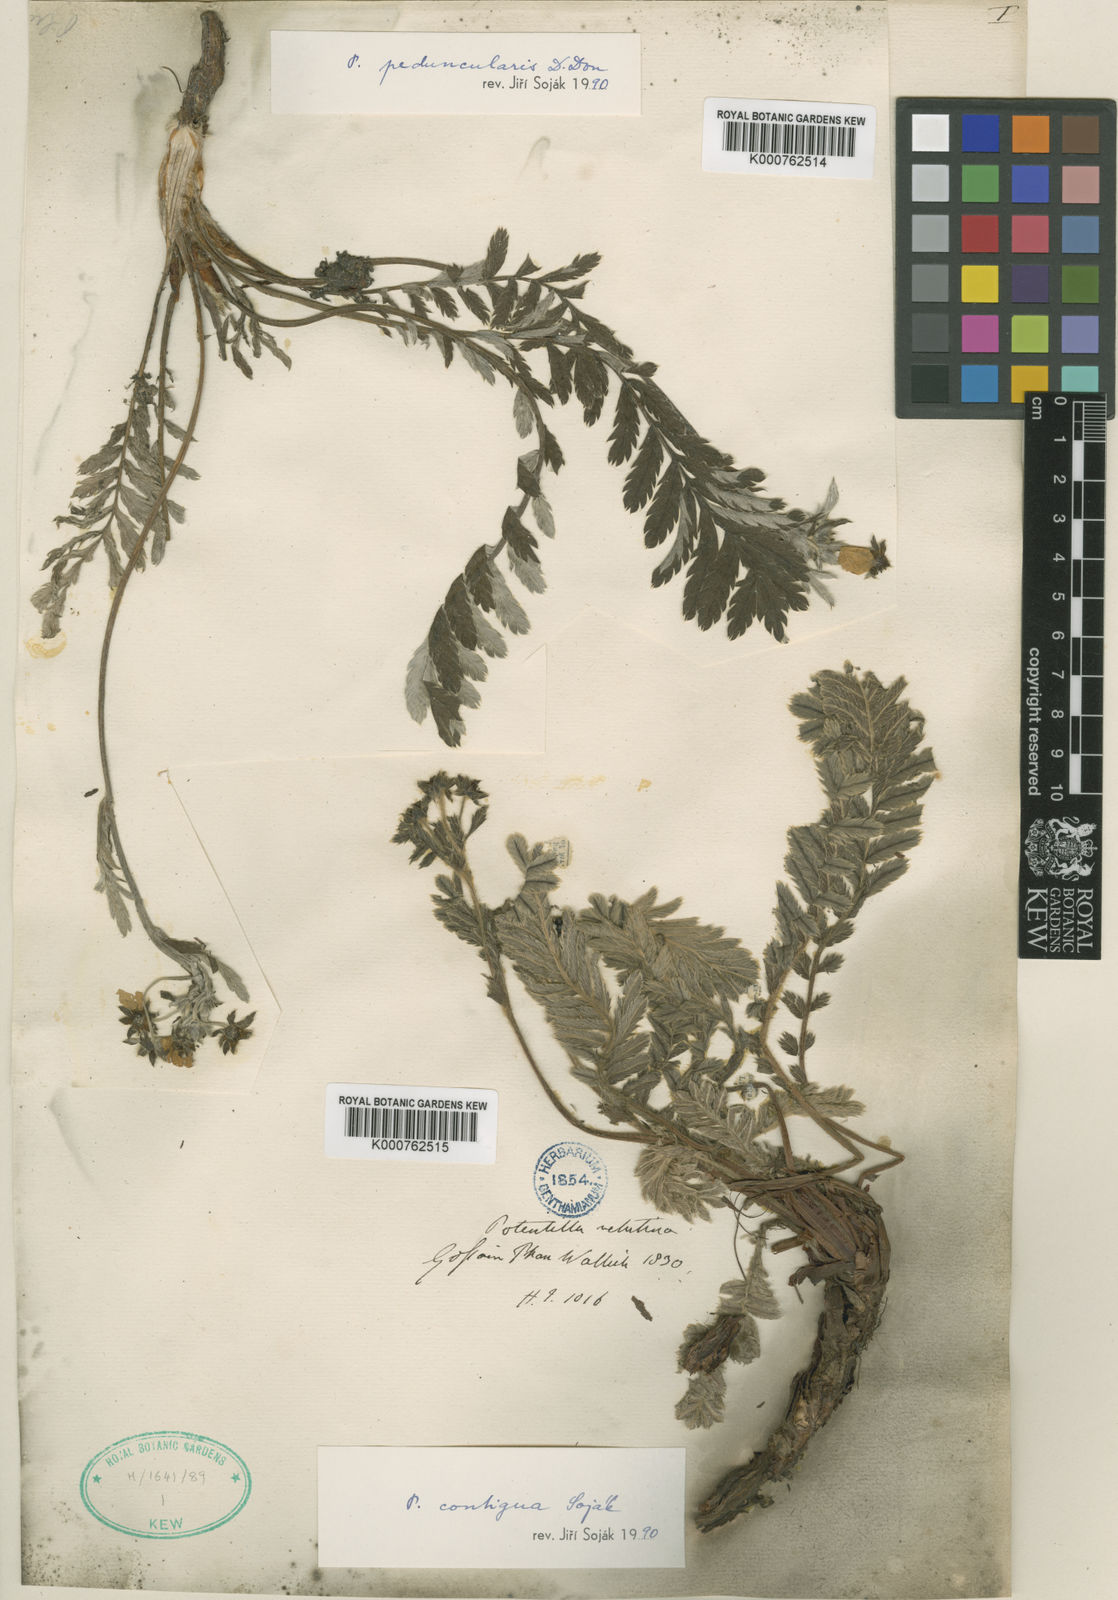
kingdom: Plantae
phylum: Tracheophyta
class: Magnoliopsida
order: Rosales
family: Rosaceae
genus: Argentina
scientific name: Argentina peduncularis
